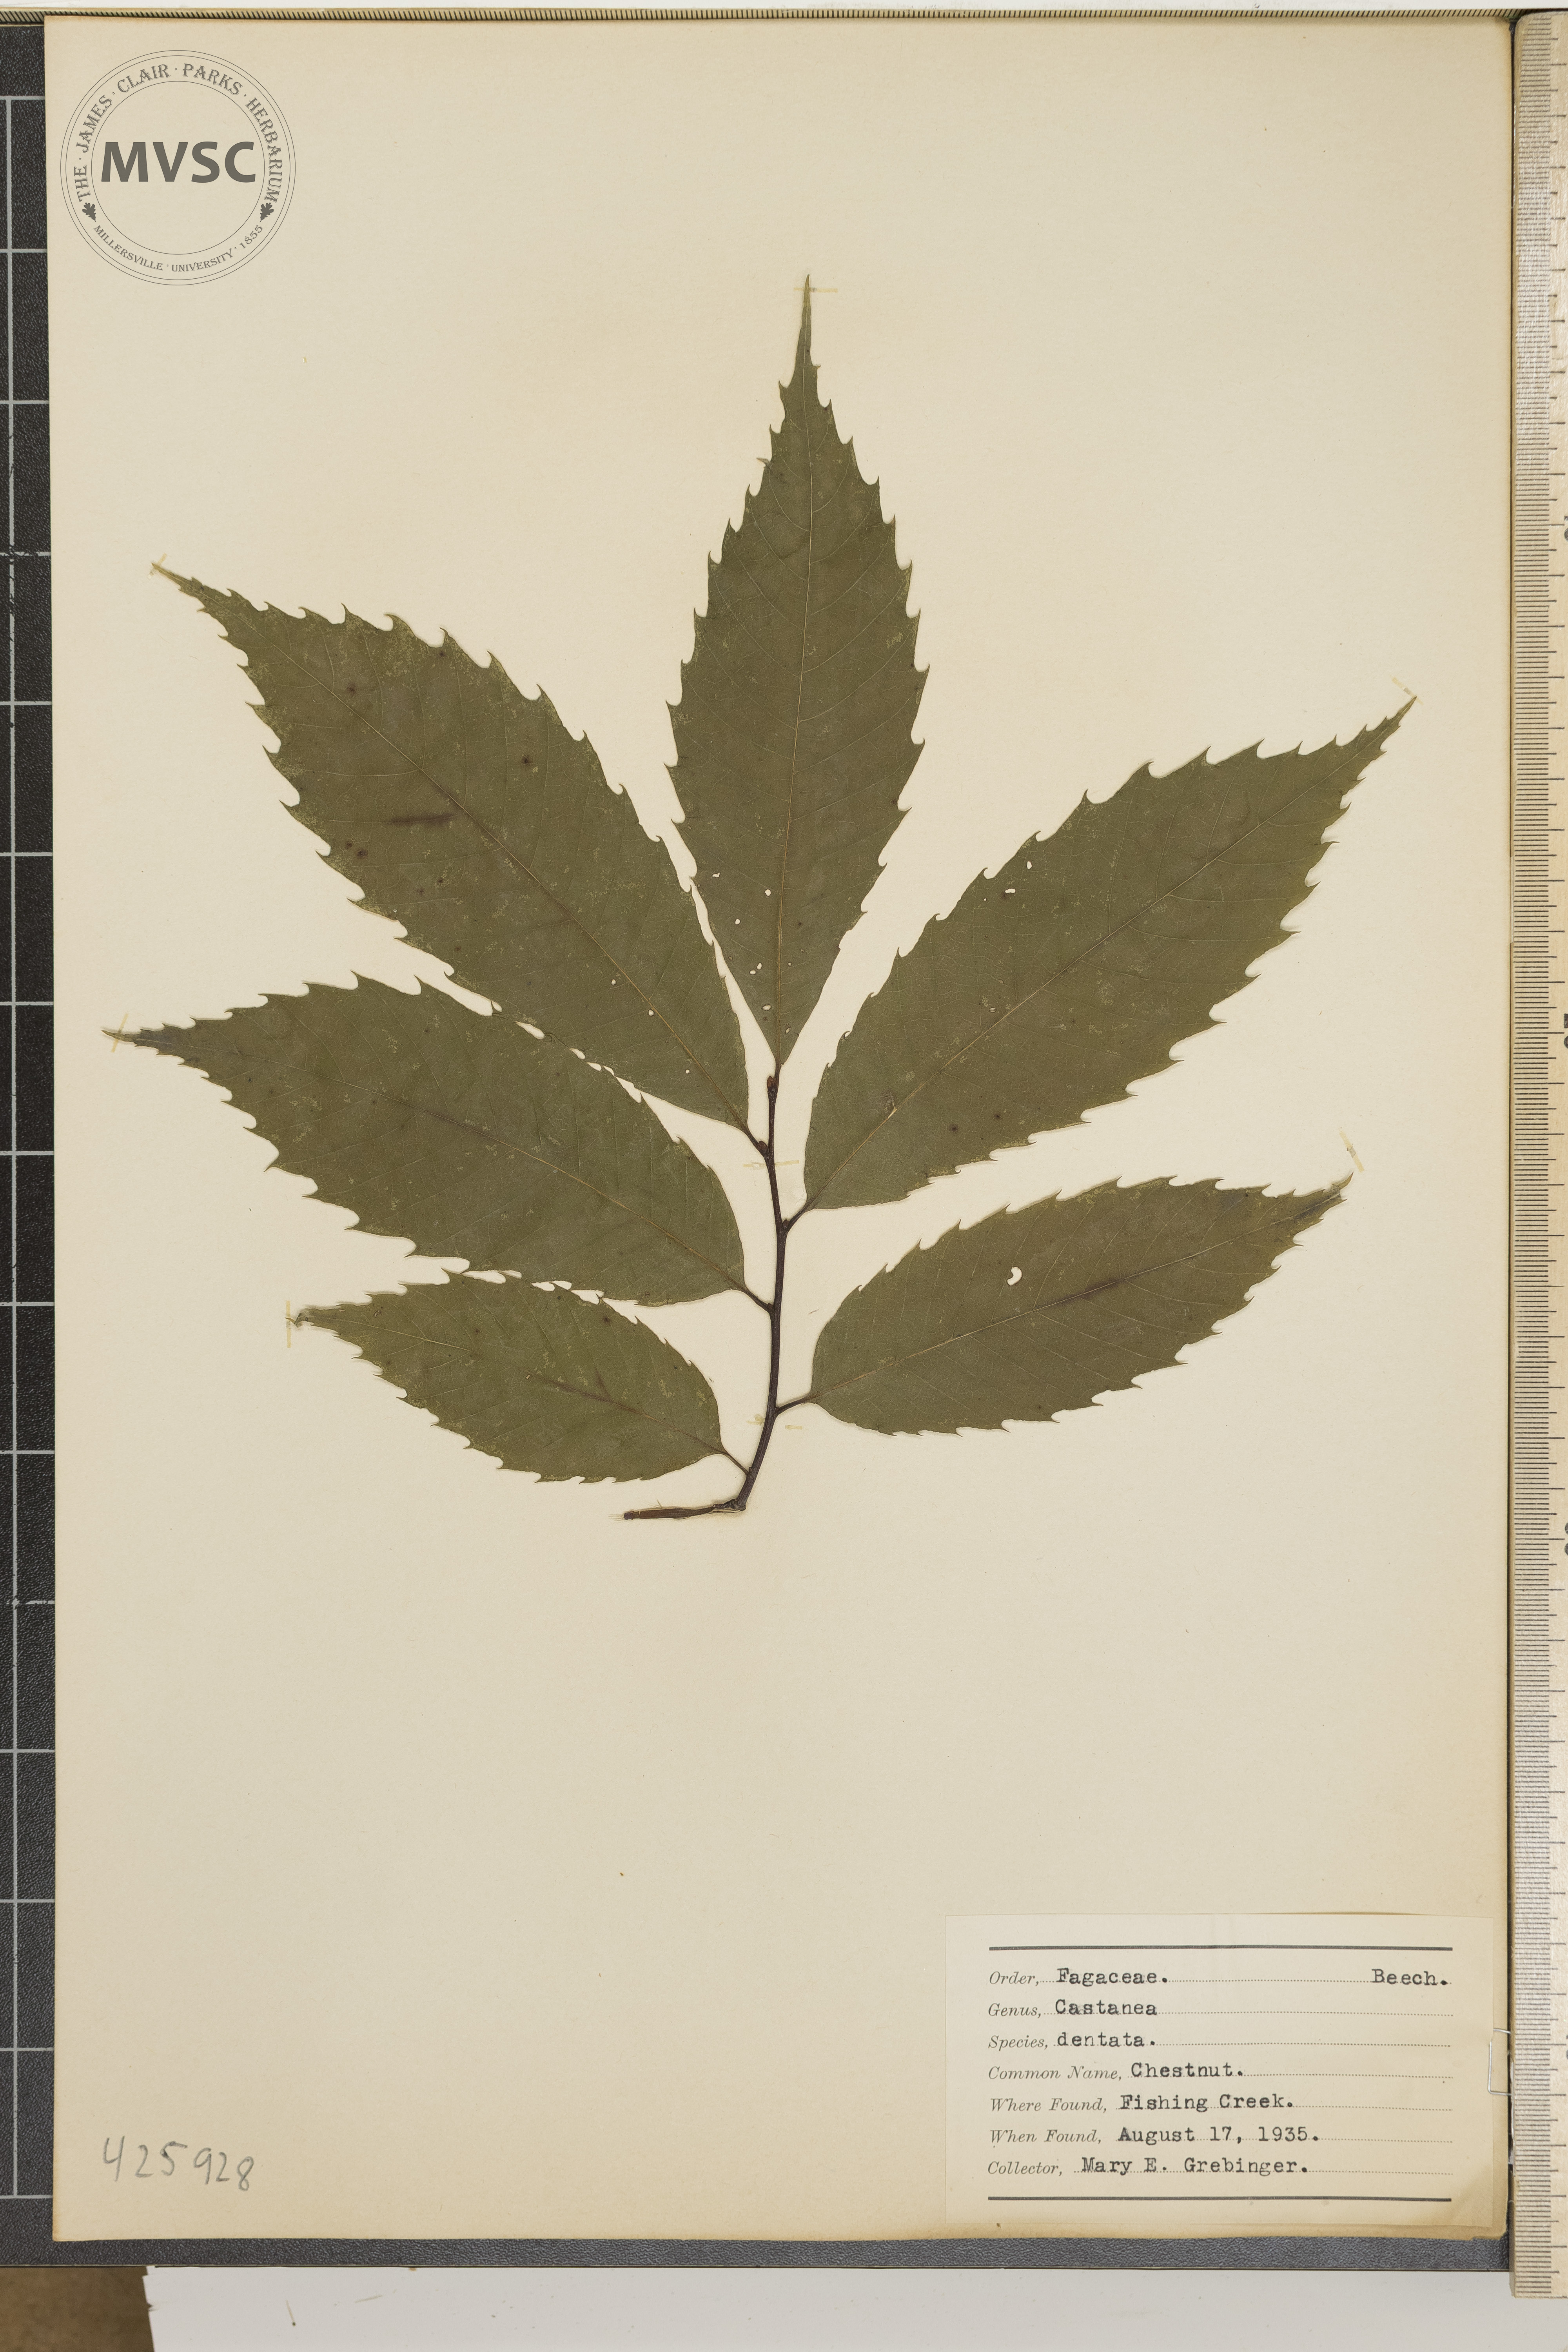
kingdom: Plantae
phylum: Tracheophyta
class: Magnoliopsida
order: Fagales
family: Fagaceae
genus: Castanea
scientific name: Castanea dentata
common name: Chestnut
